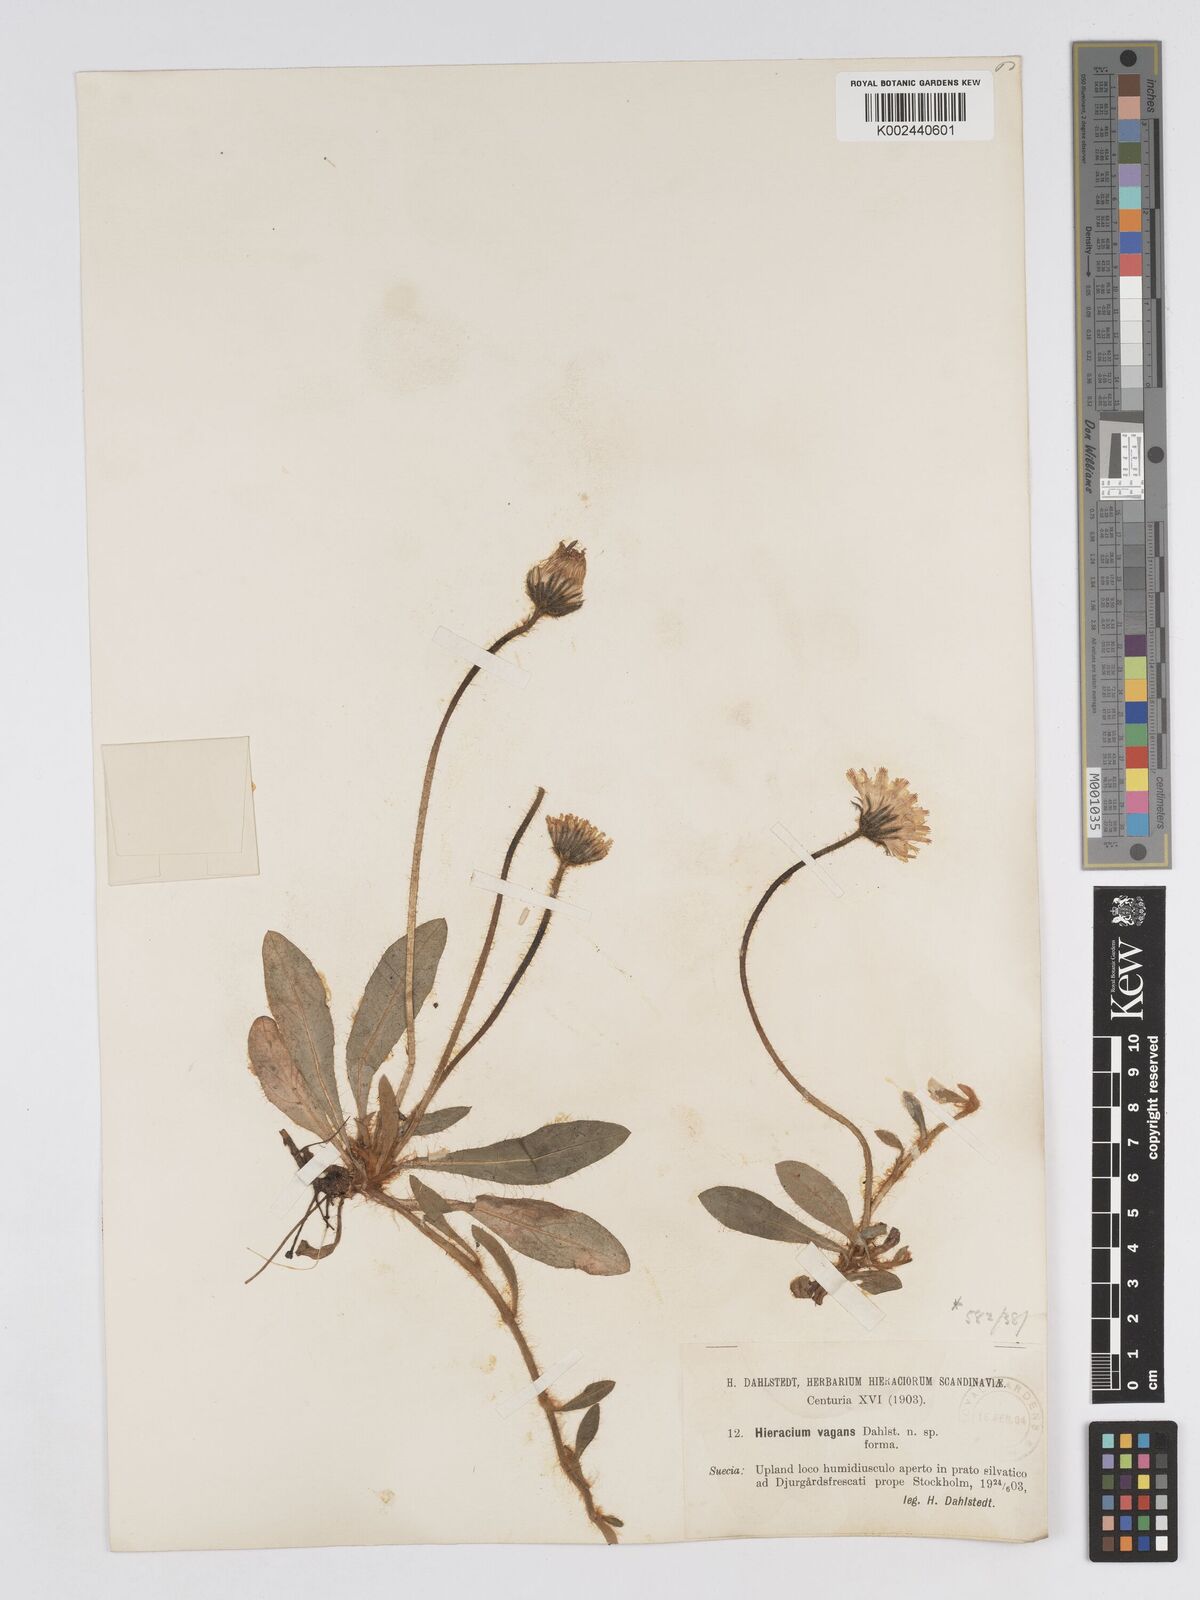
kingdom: Plantae
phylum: Tracheophyta
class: Magnoliopsida
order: Asterales
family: Asteraceae
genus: Pilosella
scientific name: Pilosella longisquama
